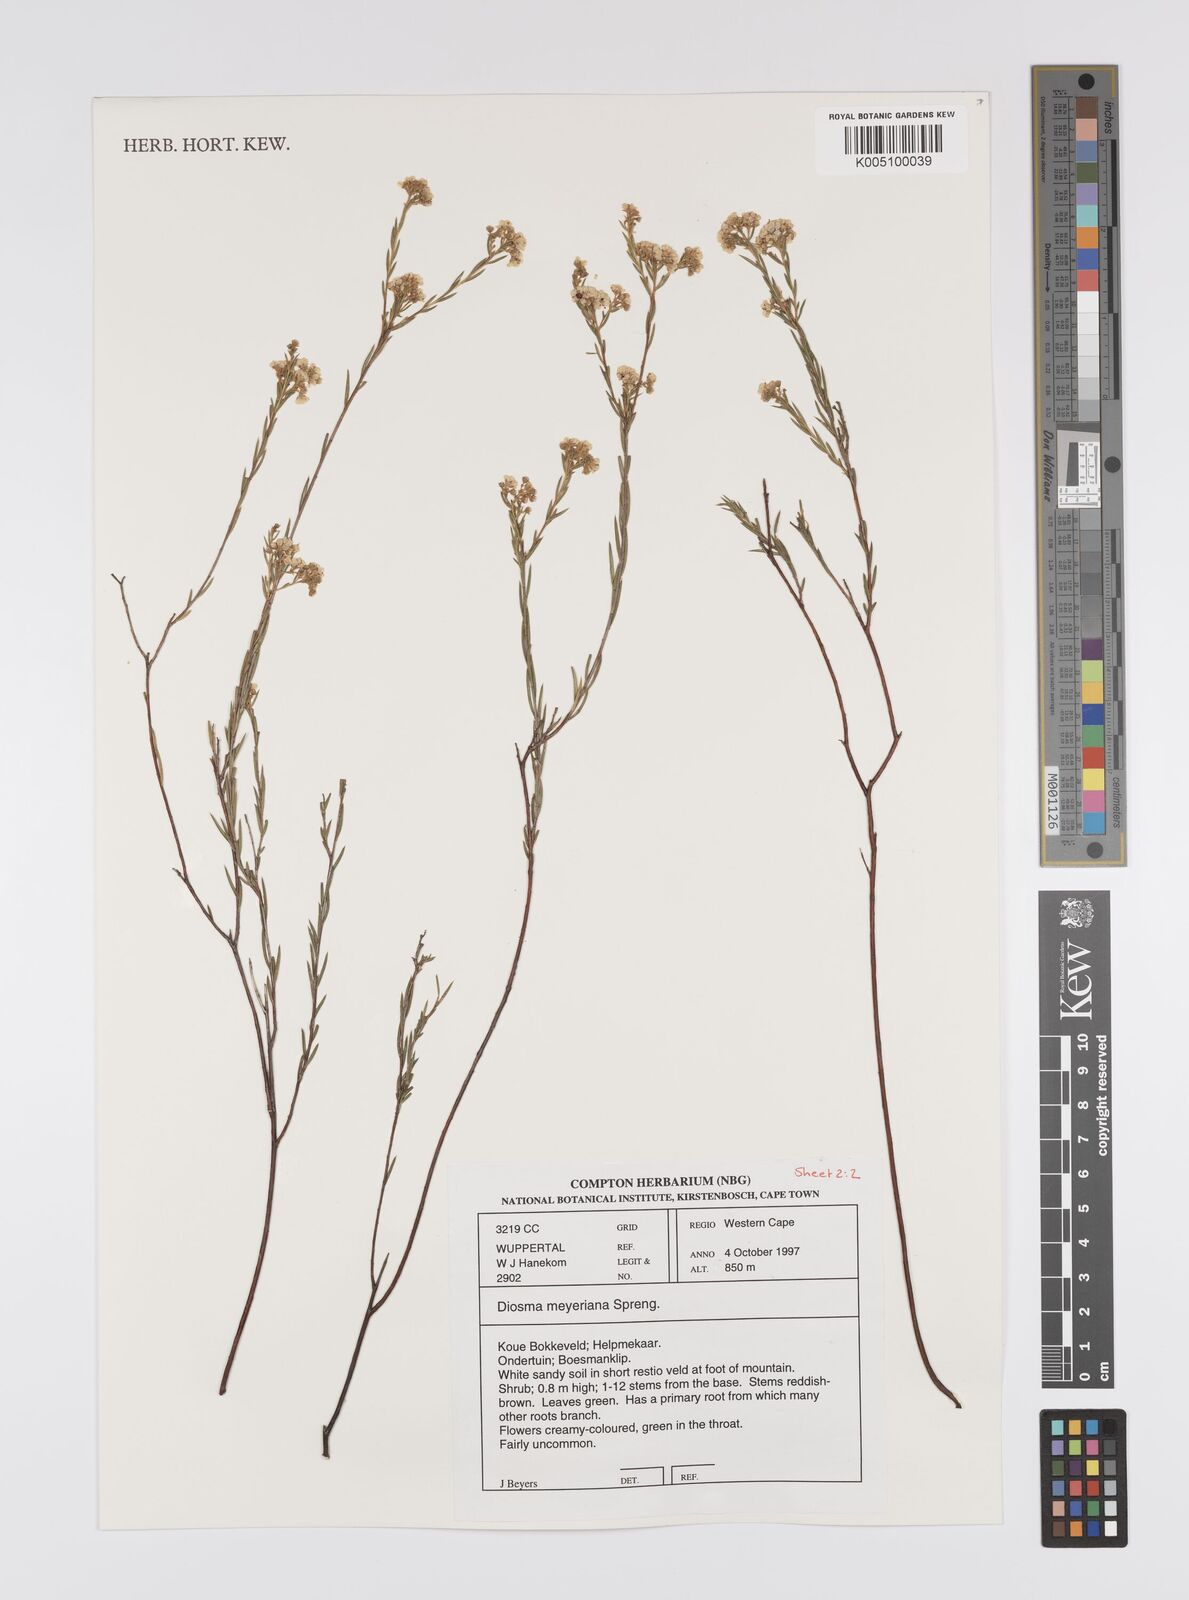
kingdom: Plantae
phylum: Tracheophyta
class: Magnoliopsida
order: Sapindales
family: Rutaceae
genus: Diosma
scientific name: Diosma
